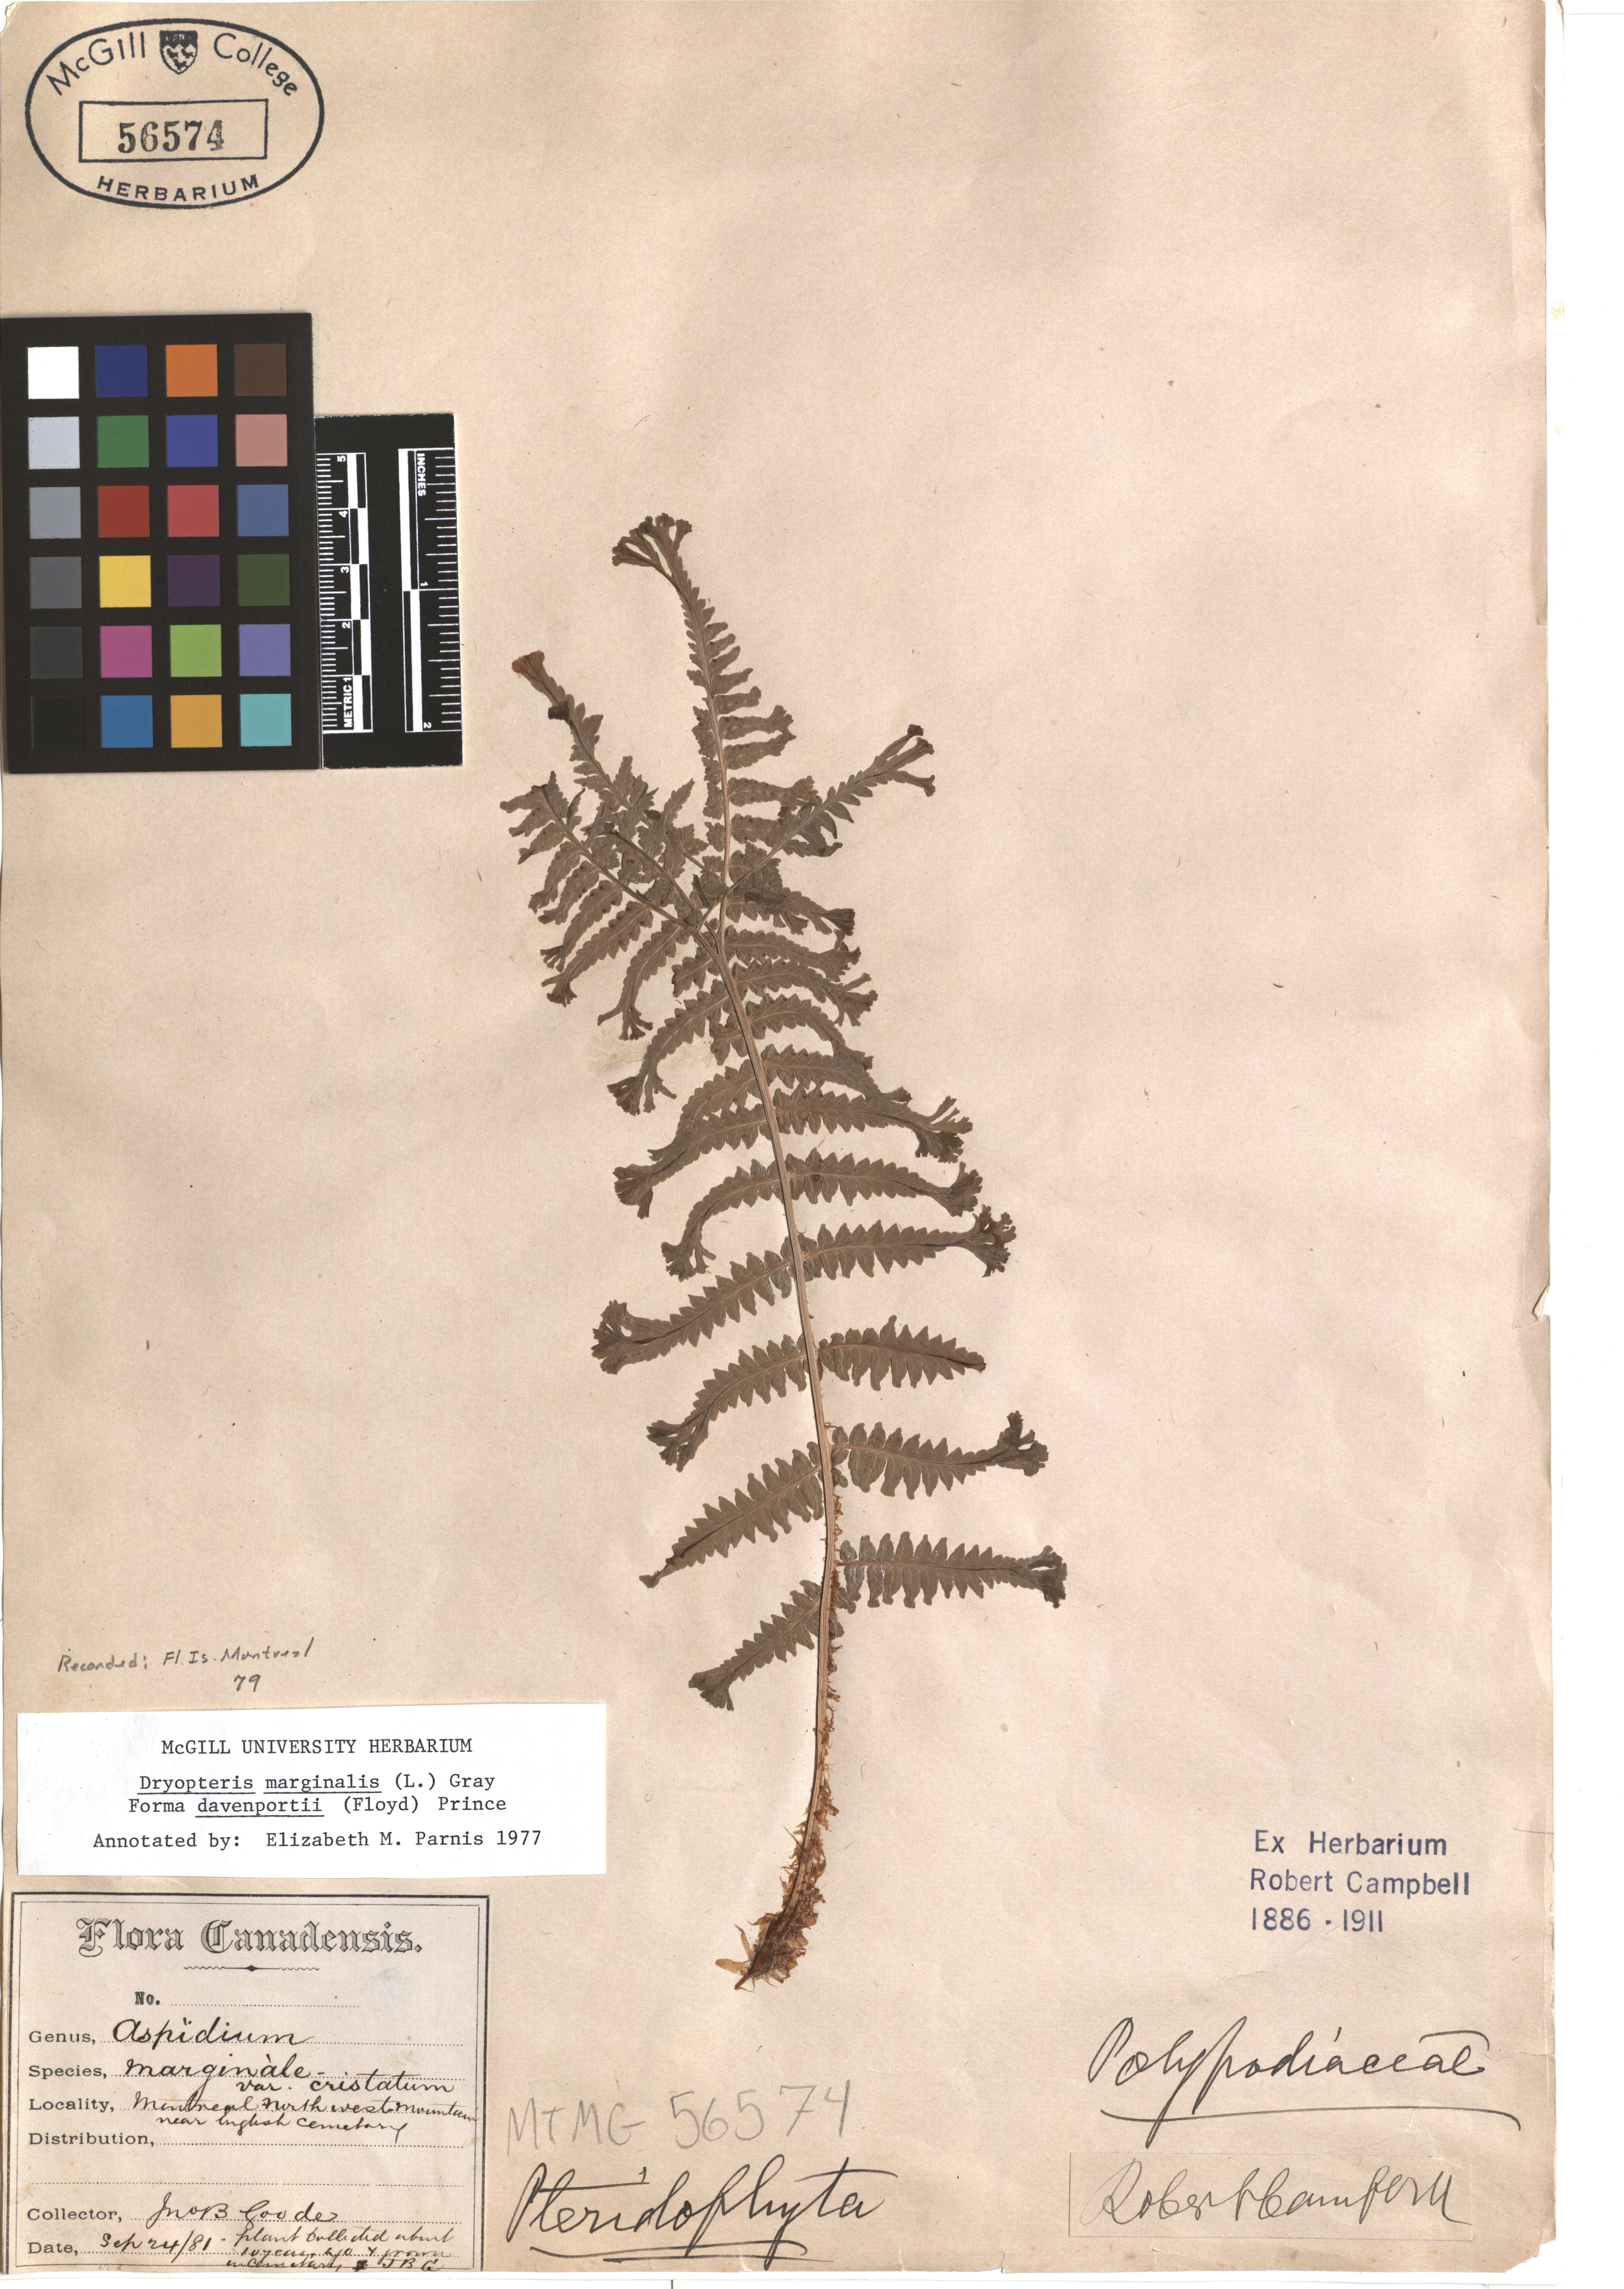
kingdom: Plantae
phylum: Tracheophyta
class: Polypodiopsida
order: Polypodiales
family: Dryopteridaceae
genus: Dryopteris
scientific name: Dryopteris marginalis
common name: Marginal wood fern
